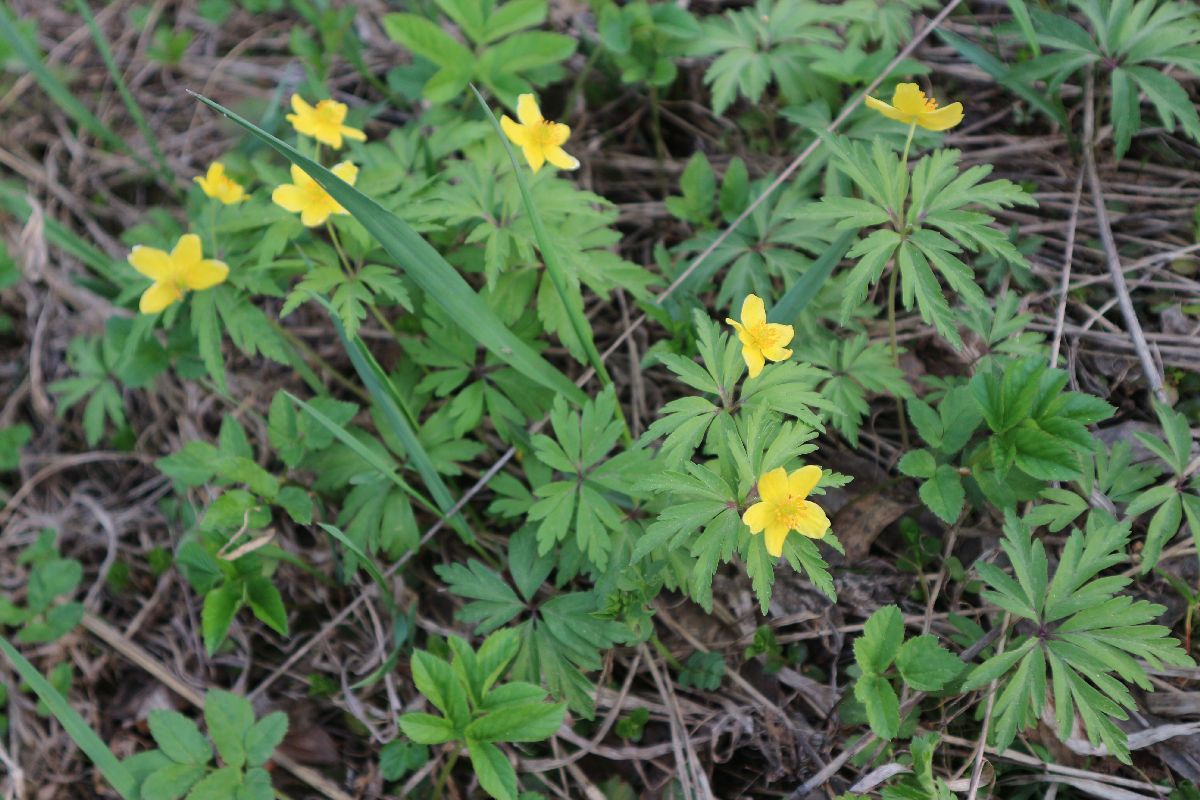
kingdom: Plantae
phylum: Tracheophyta
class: Magnoliopsida
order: Ranunculales
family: Ranunculaceae
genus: Anemone
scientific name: Anemone ranunculoides
